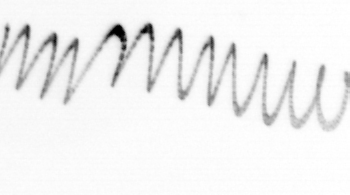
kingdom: Chromista
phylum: Ochrophyta
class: Bacillariophyceae
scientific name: Bacillariophyceae
